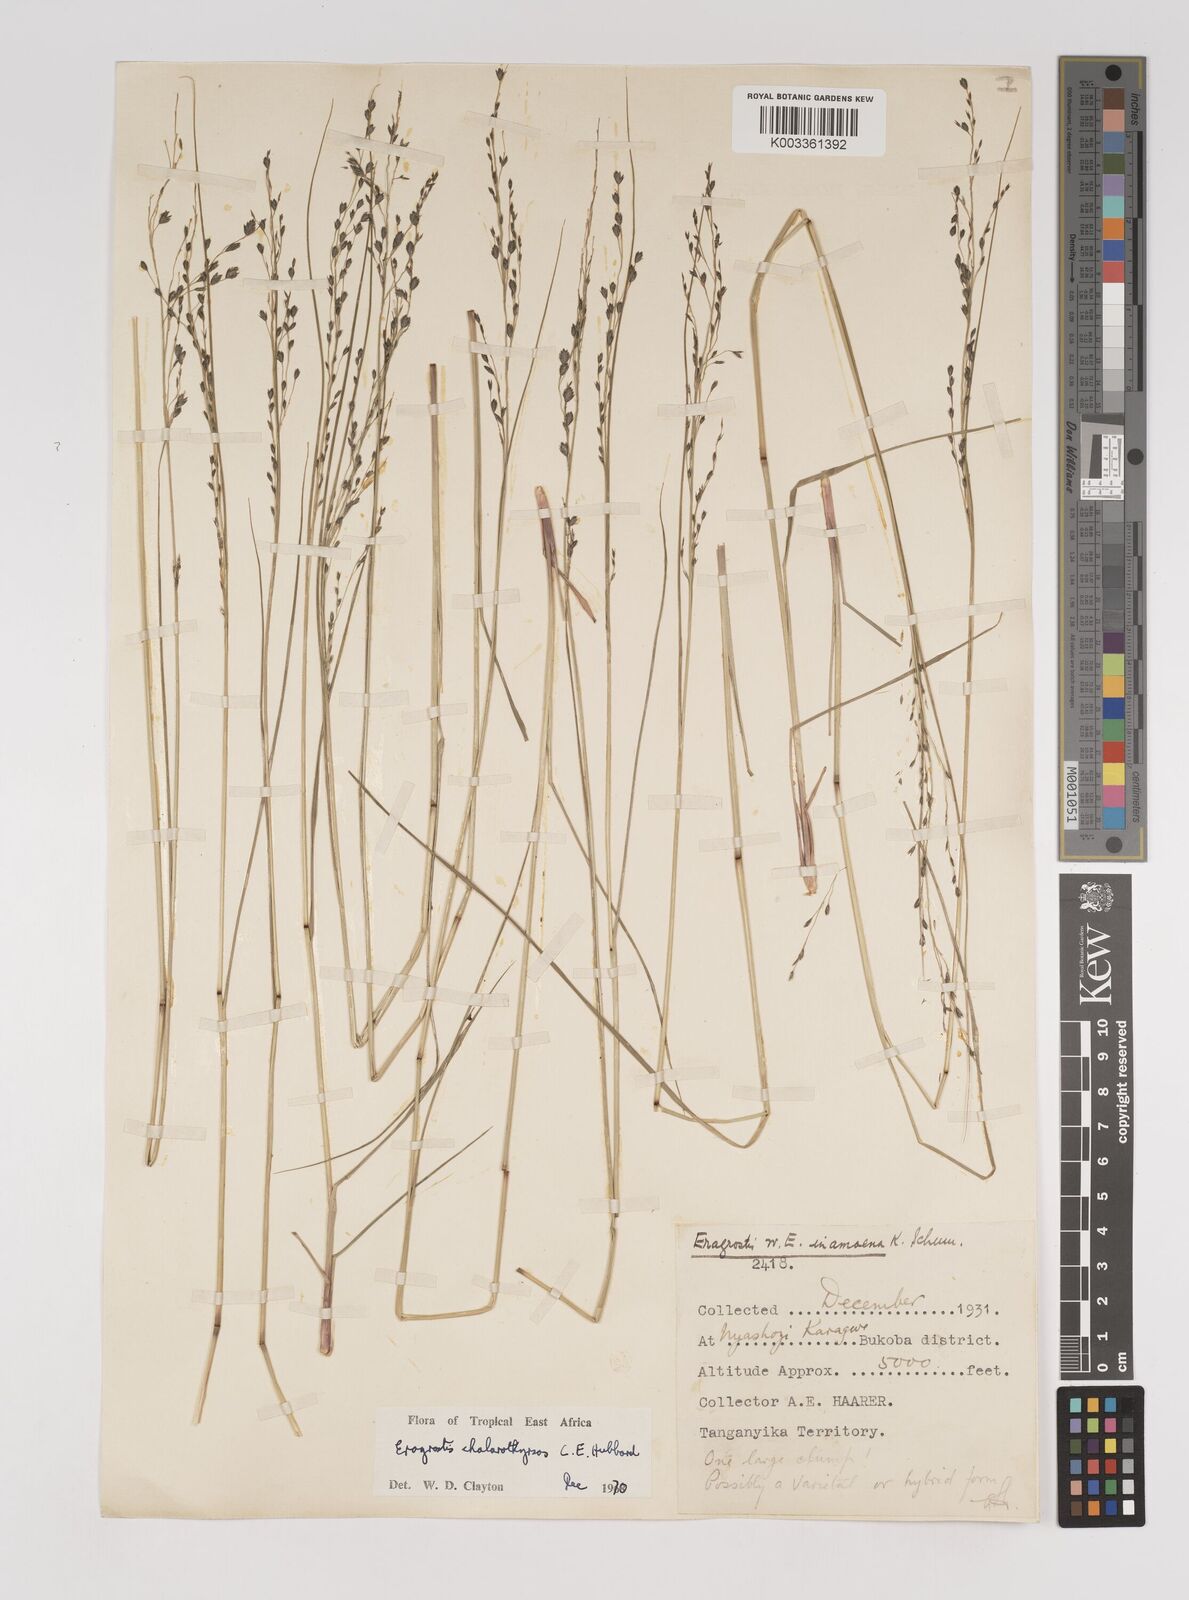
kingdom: Plantae
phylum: Tracheophyta
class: Liliopsida
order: Poales
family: Poaceae
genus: Eragrostis
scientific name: Eragrostis chalarothyrsos
